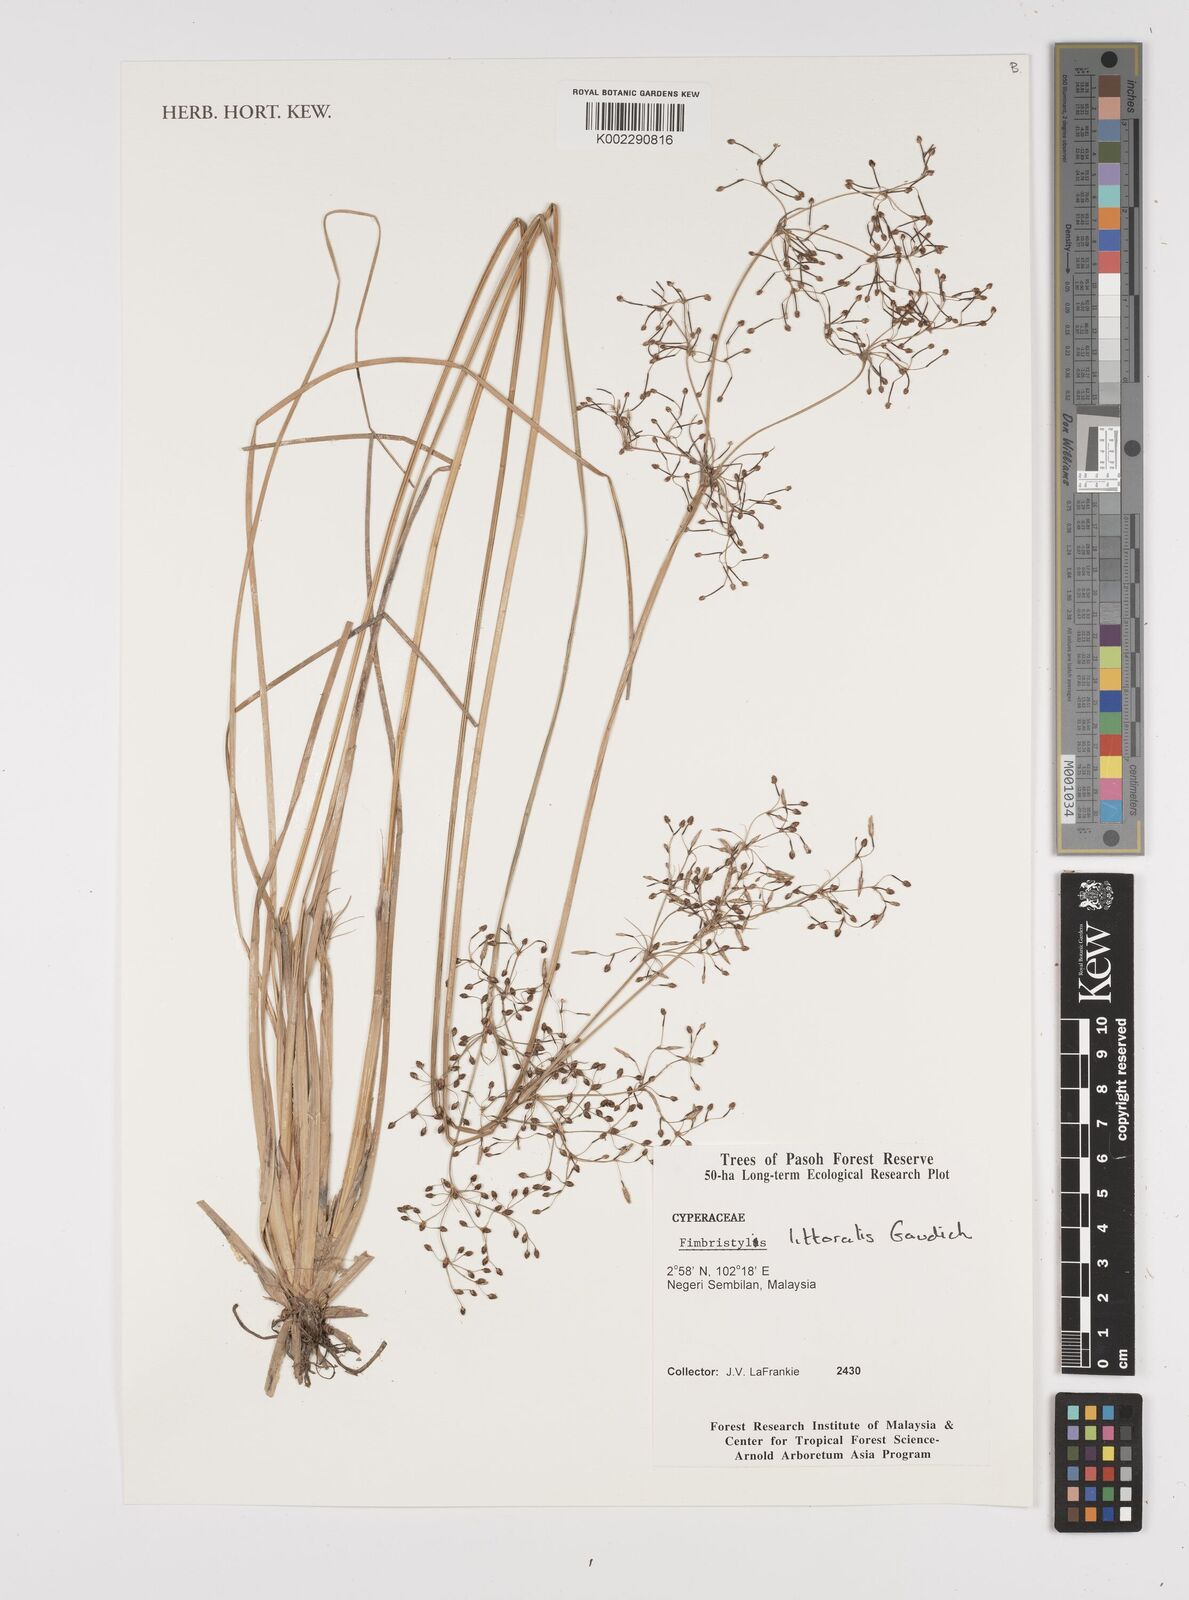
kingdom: Plantae
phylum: Tracheophyta
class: Liliopsida
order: Poales
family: Cyperaceae
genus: Fimbristylis
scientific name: Fimbristylis littoralis
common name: Fimbry
